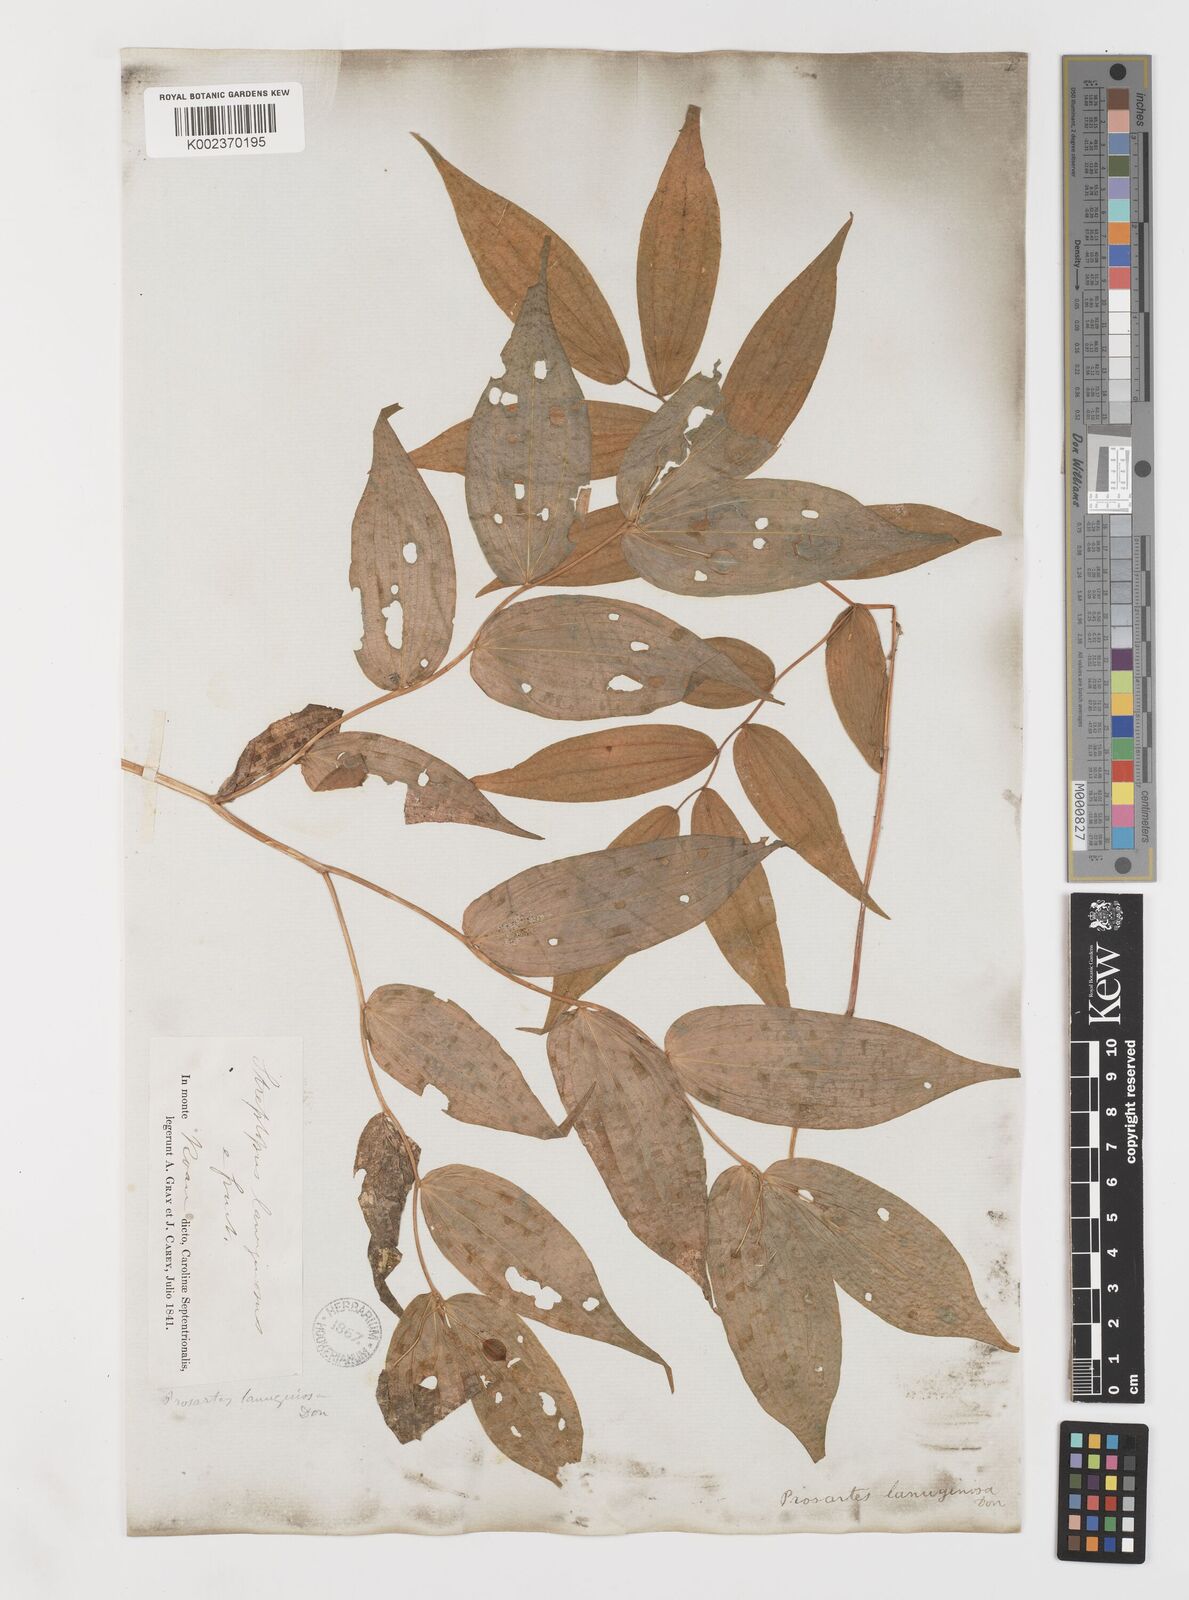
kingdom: Plantae
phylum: Tracheophyta
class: Liliopsida
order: Liliales
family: Liliaceae
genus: Prosartes
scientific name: Prosartes trachycarpa
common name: Rough-fruit fairy-bells
